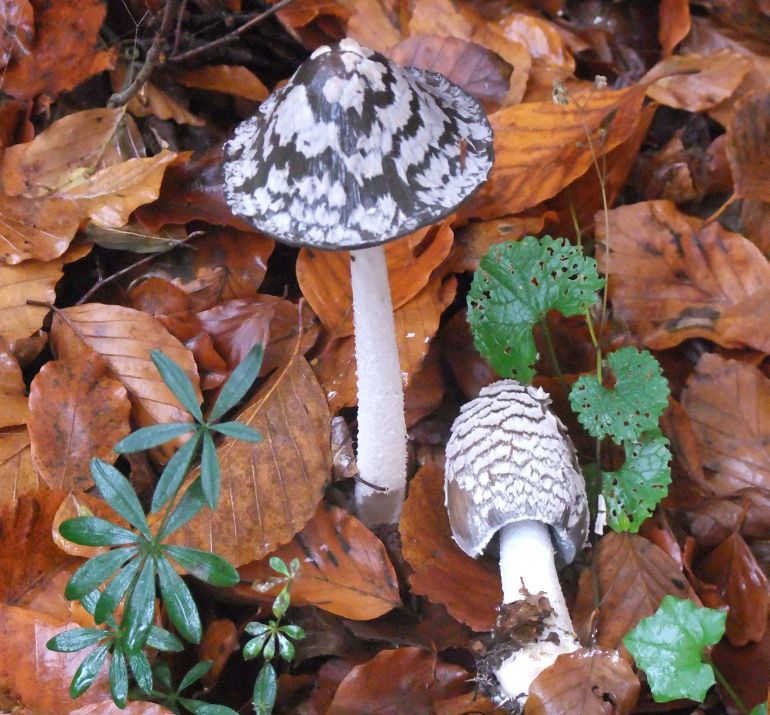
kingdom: Fungi
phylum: Basidiomycota
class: Agaricomycetes
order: Agaricales
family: Psathyrellaceae
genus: Coprinopsis
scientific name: Coprinopsis picacea
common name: skade-blækhat
